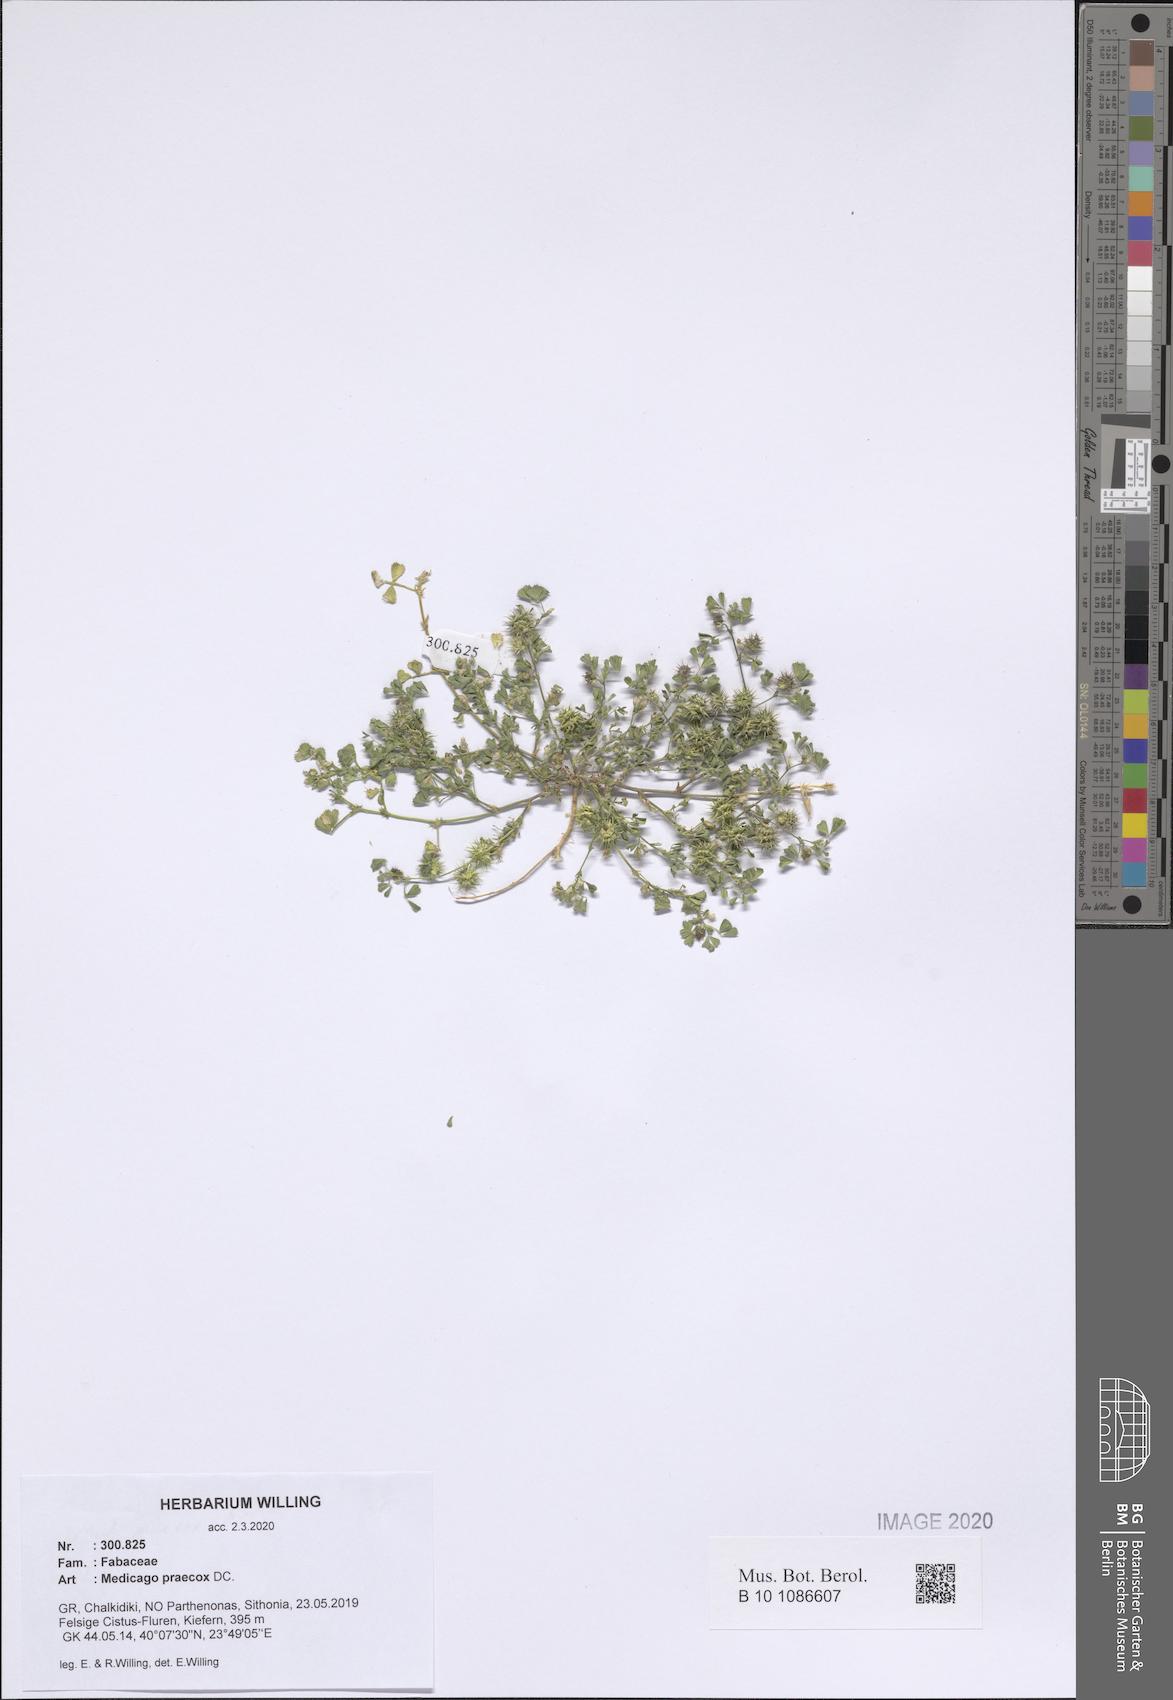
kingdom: Plantae
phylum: Tracheophyta
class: Magnoliopsida
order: Fabales
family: Fabaceae
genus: Medicago
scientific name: Medicago praecox
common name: Early medick
